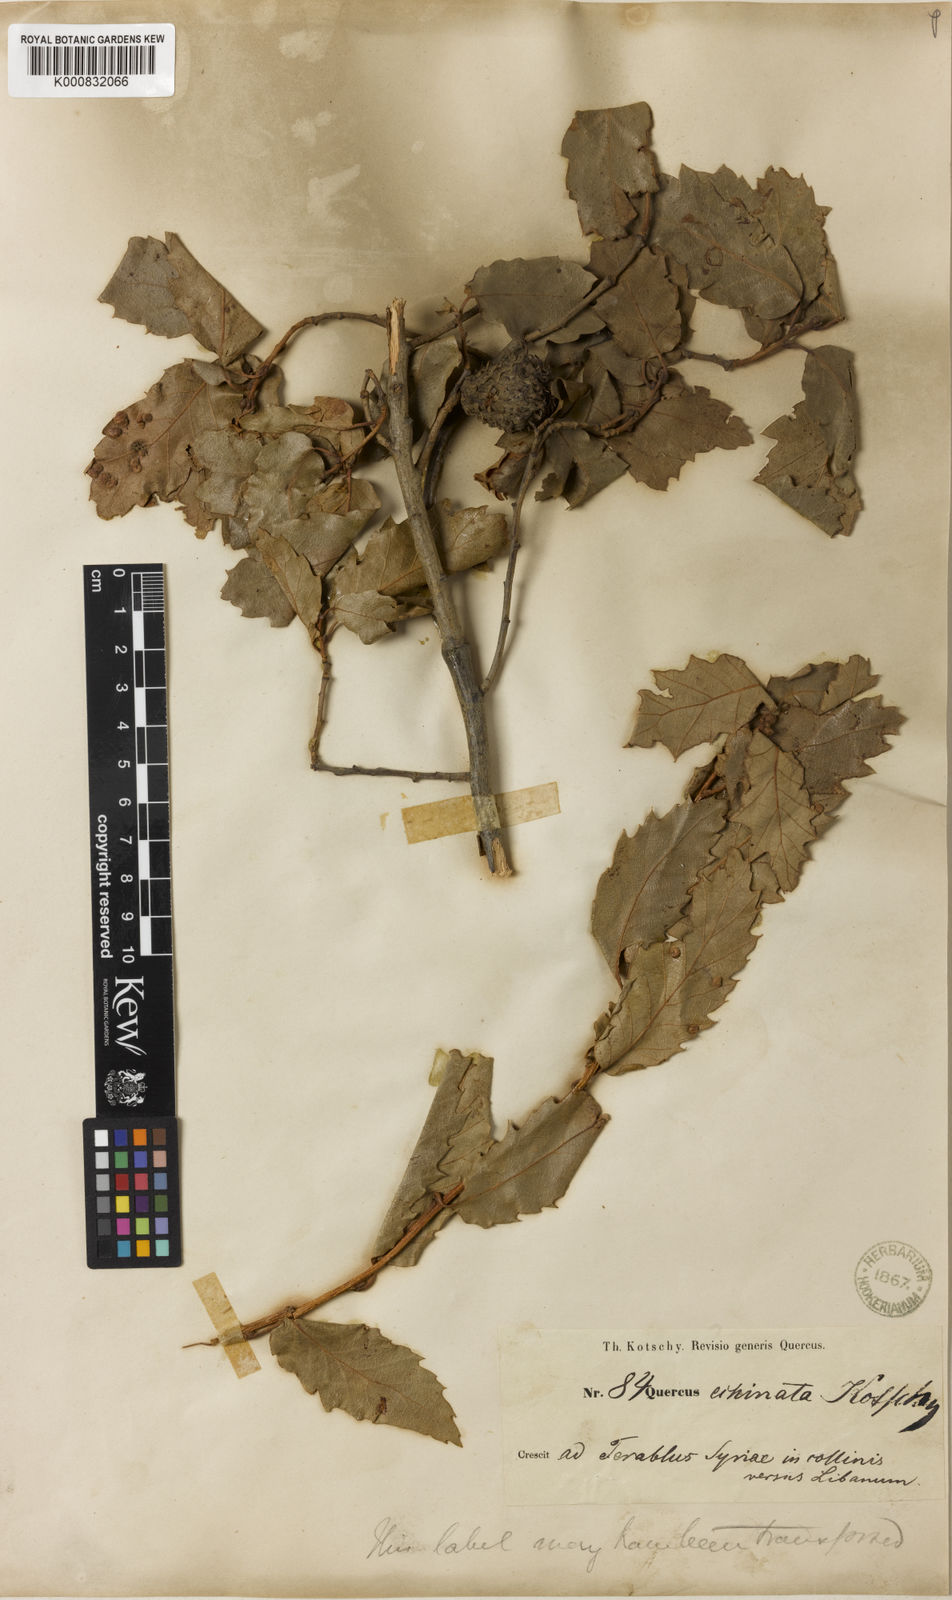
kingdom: Plantae
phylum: Tracheophyta
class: Magnoliopsida
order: Fagales
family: Fagaceae
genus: Quercus
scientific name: Quercus libani
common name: Lebanon oak
